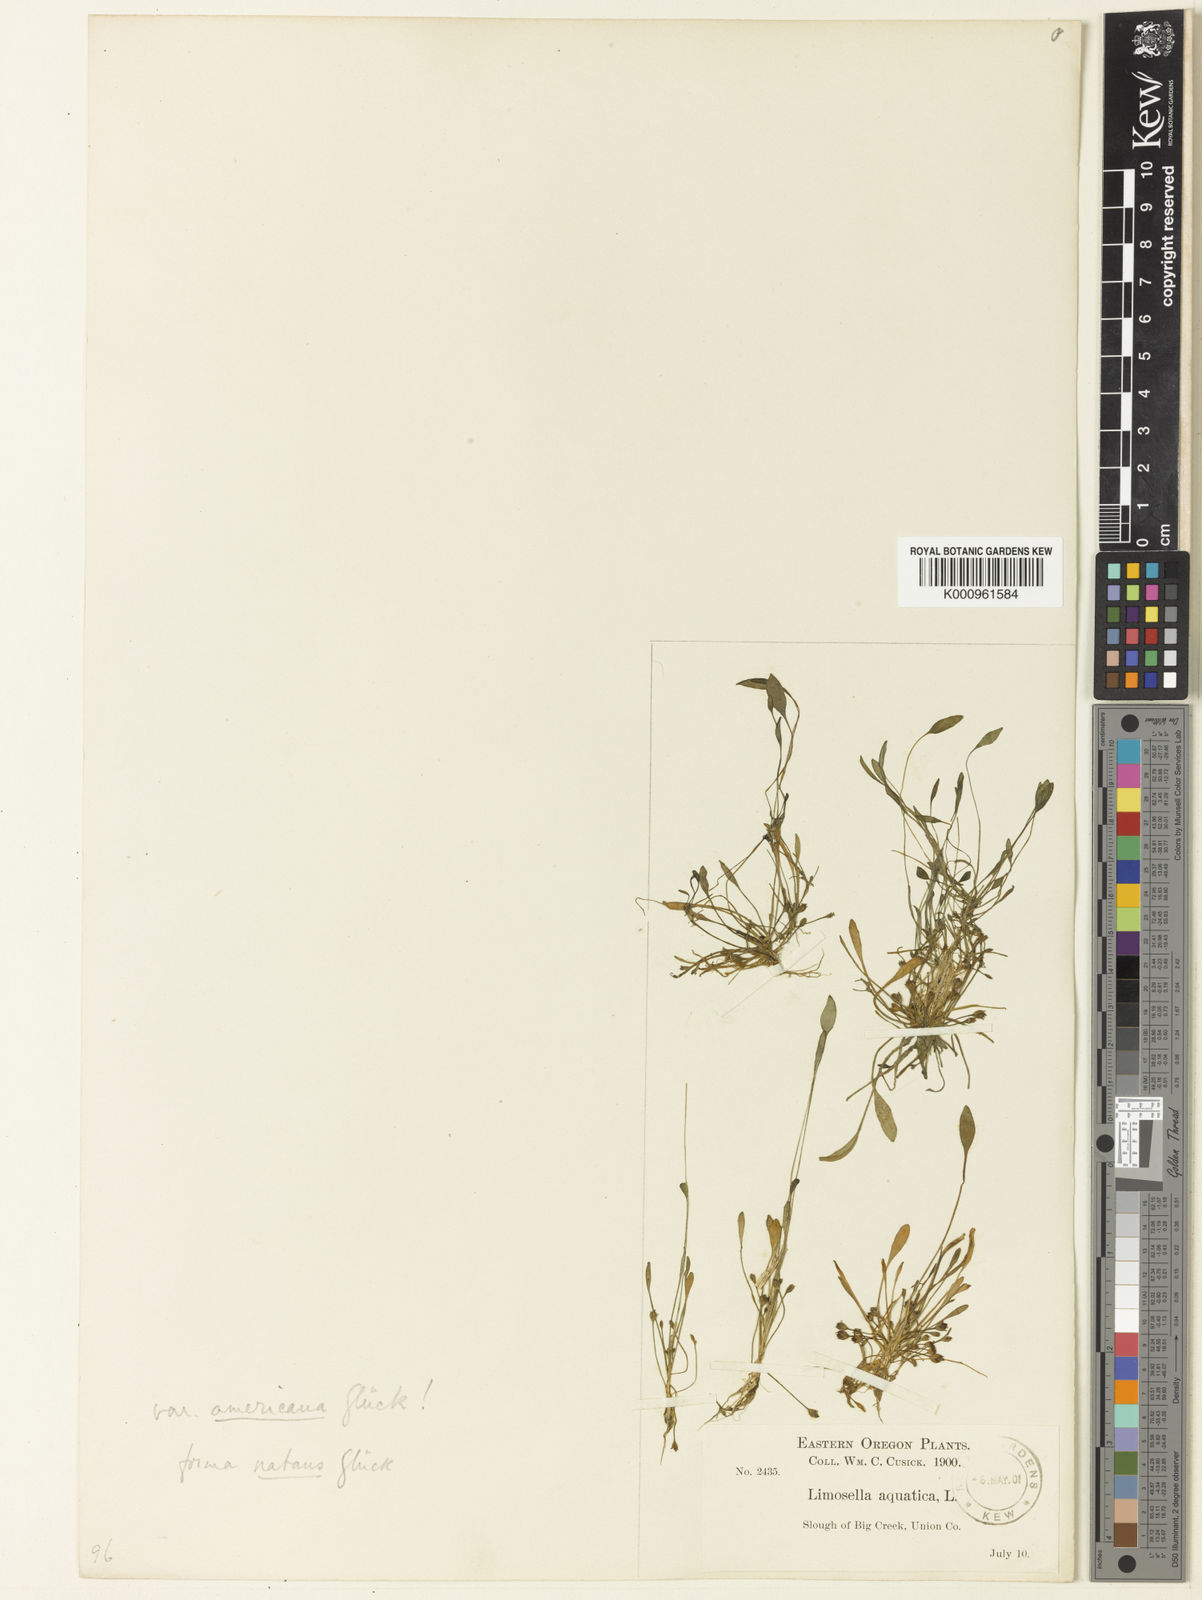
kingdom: Plantae
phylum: Tracheophyta
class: Magnoliopsida
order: Lamiales
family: Scrophulariaceae
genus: Limosella
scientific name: Limosella aquatica
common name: Mudwort
